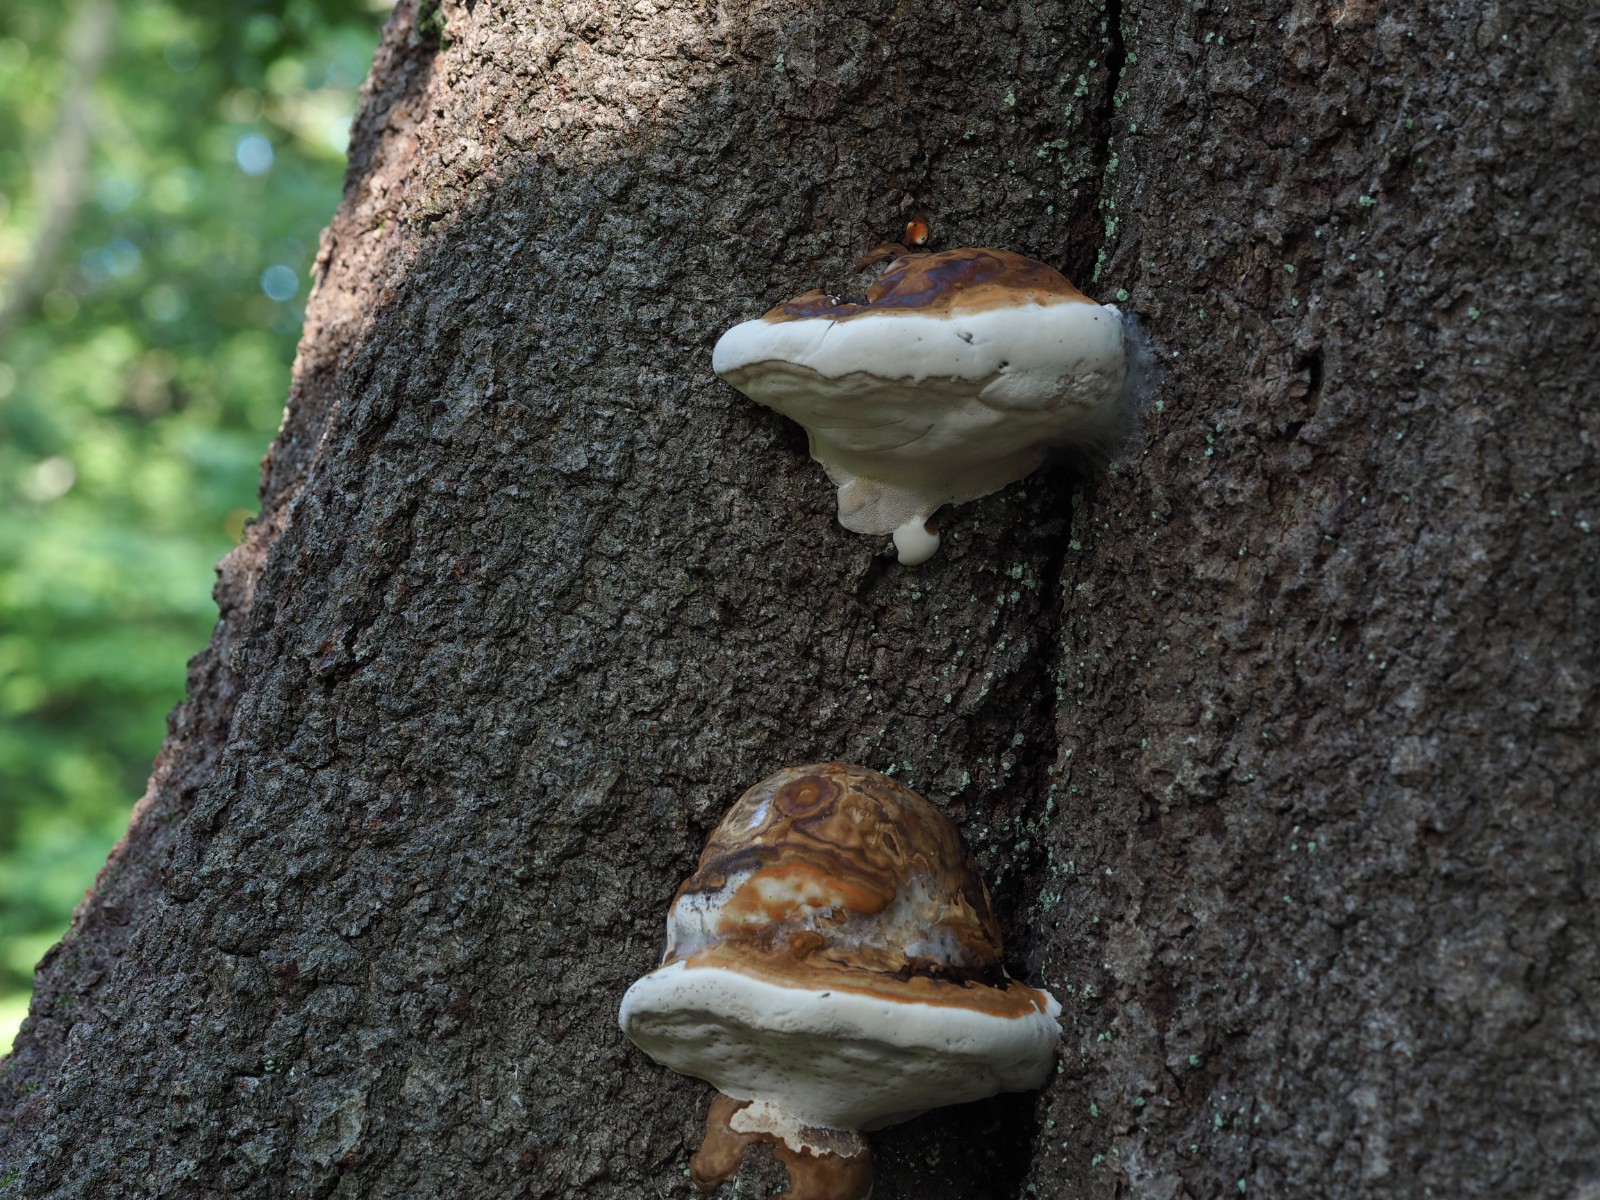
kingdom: Fungi
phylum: Basidiomycota
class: Agaricomycetes
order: Polyporales
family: Polyporaceae
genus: Ganoderma
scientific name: Ganoderma pfeifferi
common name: kobberrød lakporesvamp
